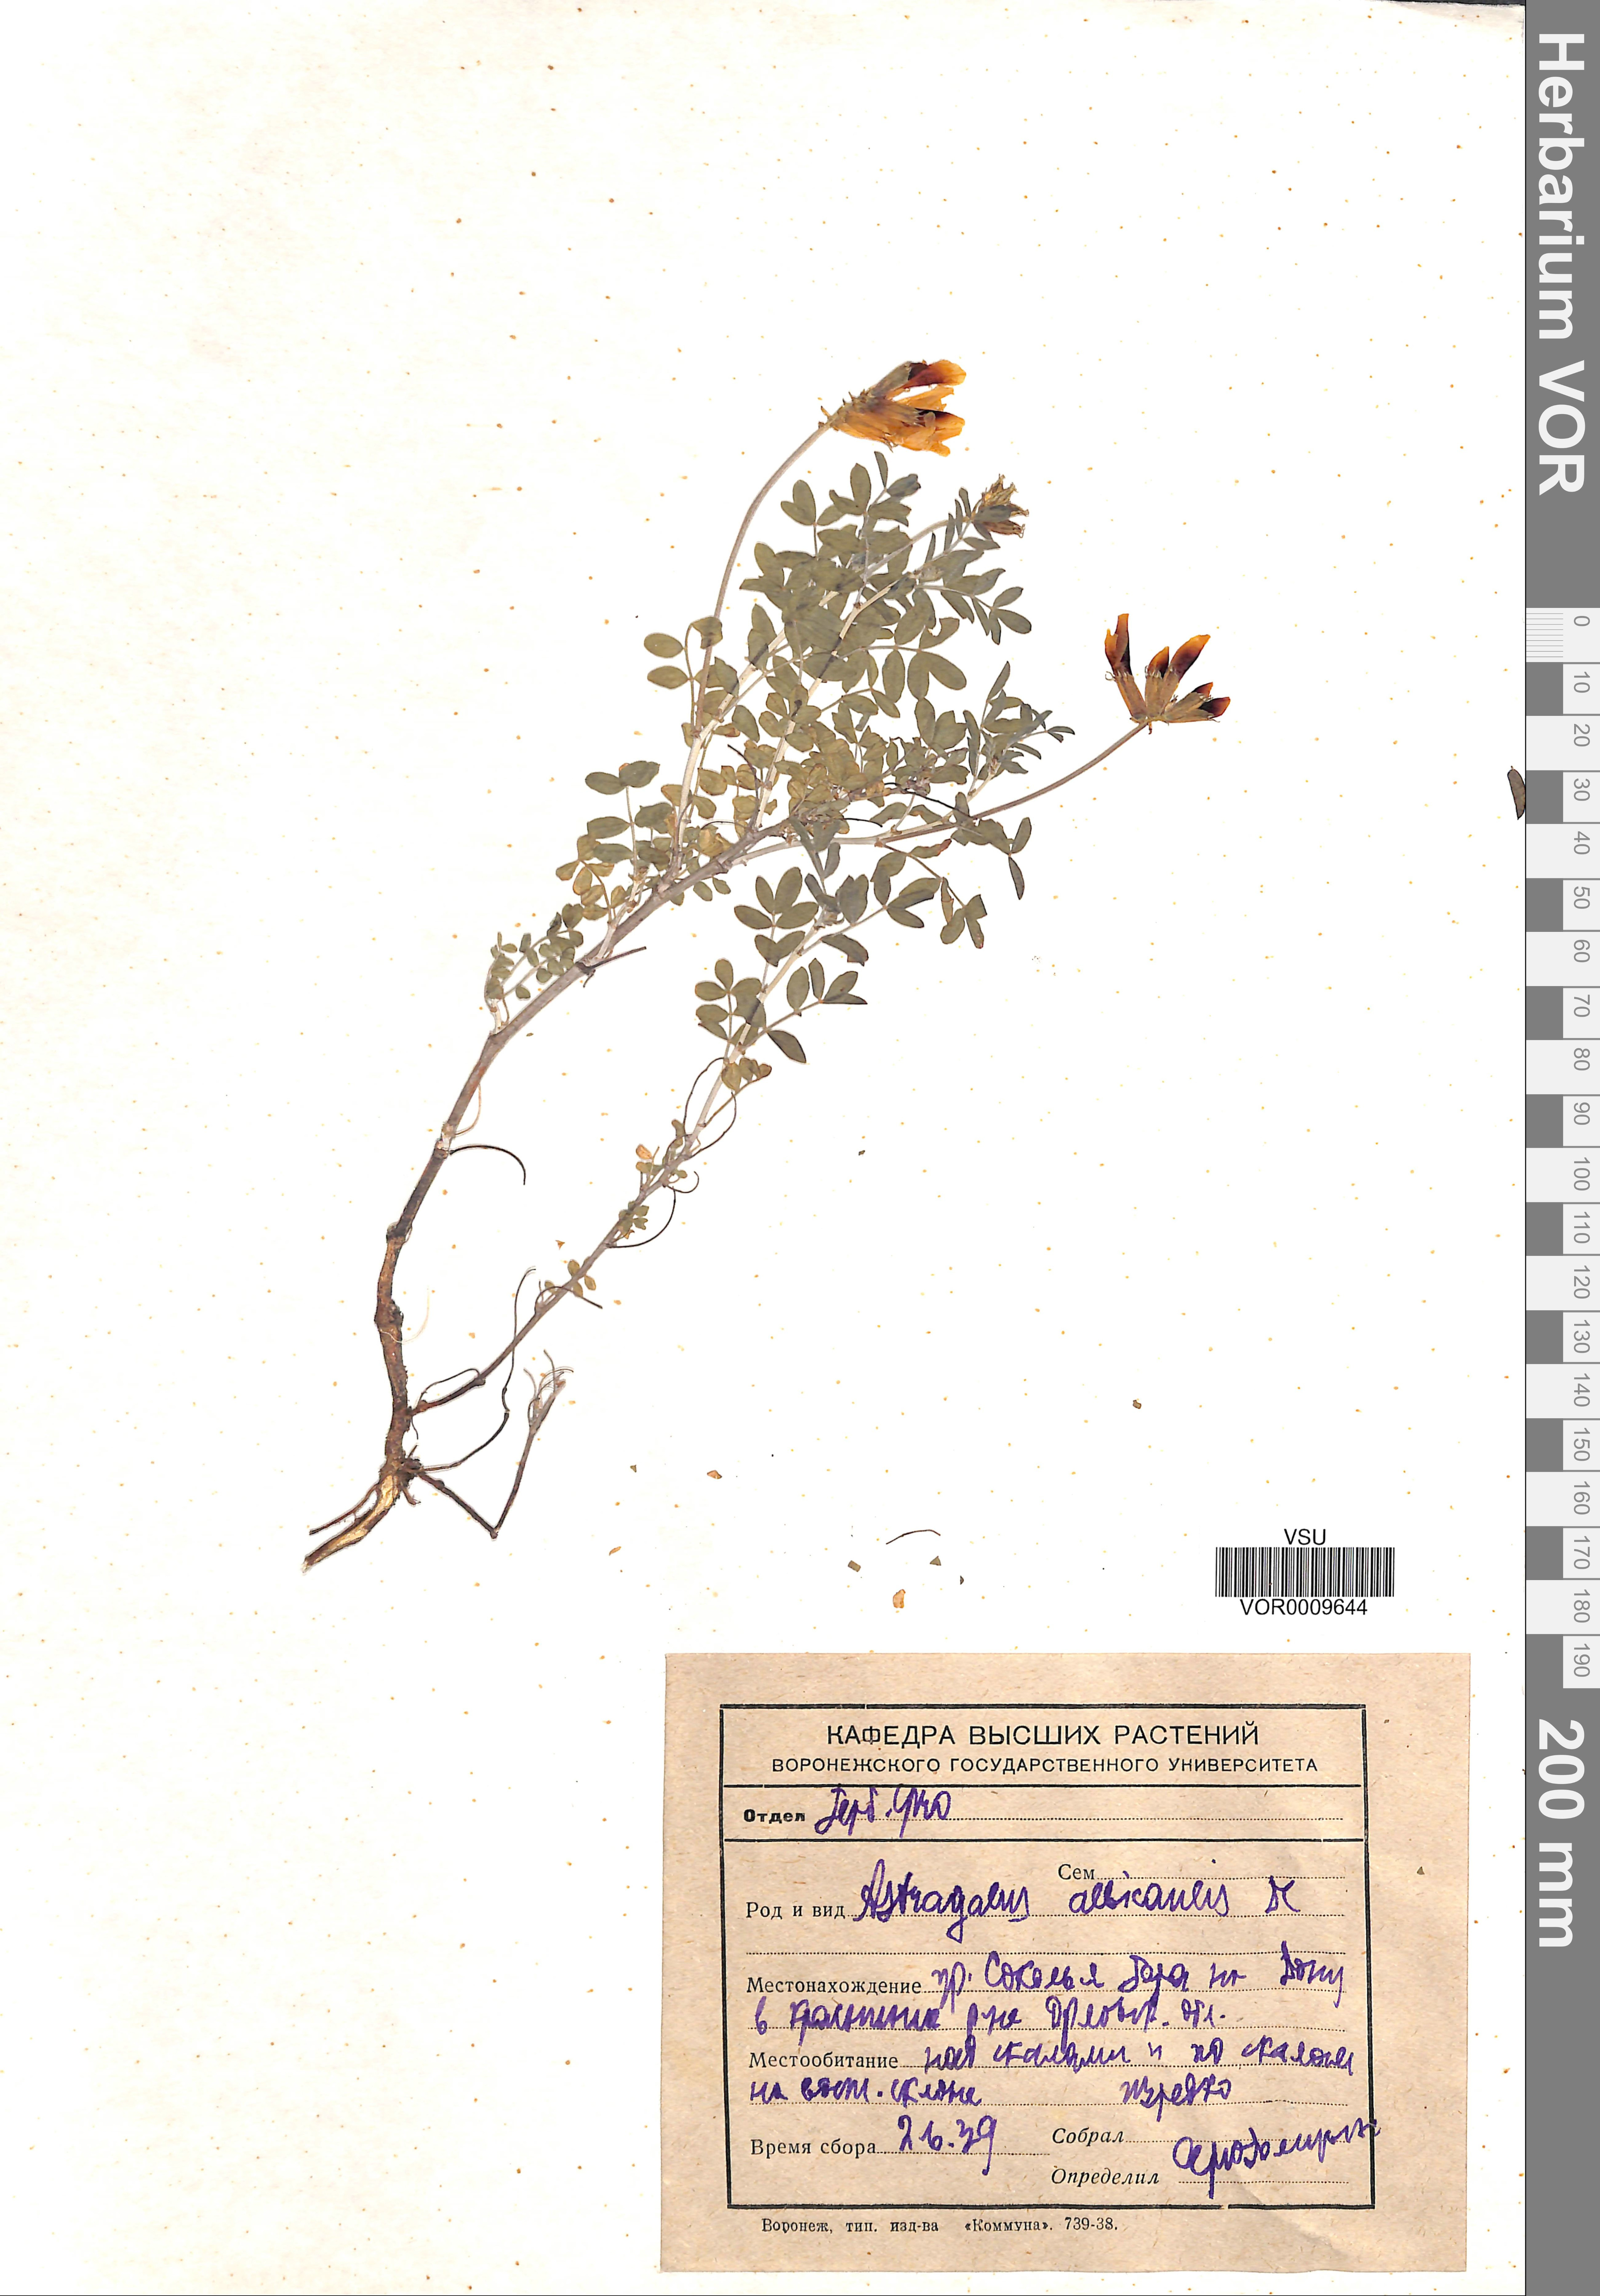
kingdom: Plantae
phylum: Tracheophyta
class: Magnoliopsida
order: Fabales
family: Fabaceae
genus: Astragalus
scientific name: Astragalus albicaulis
